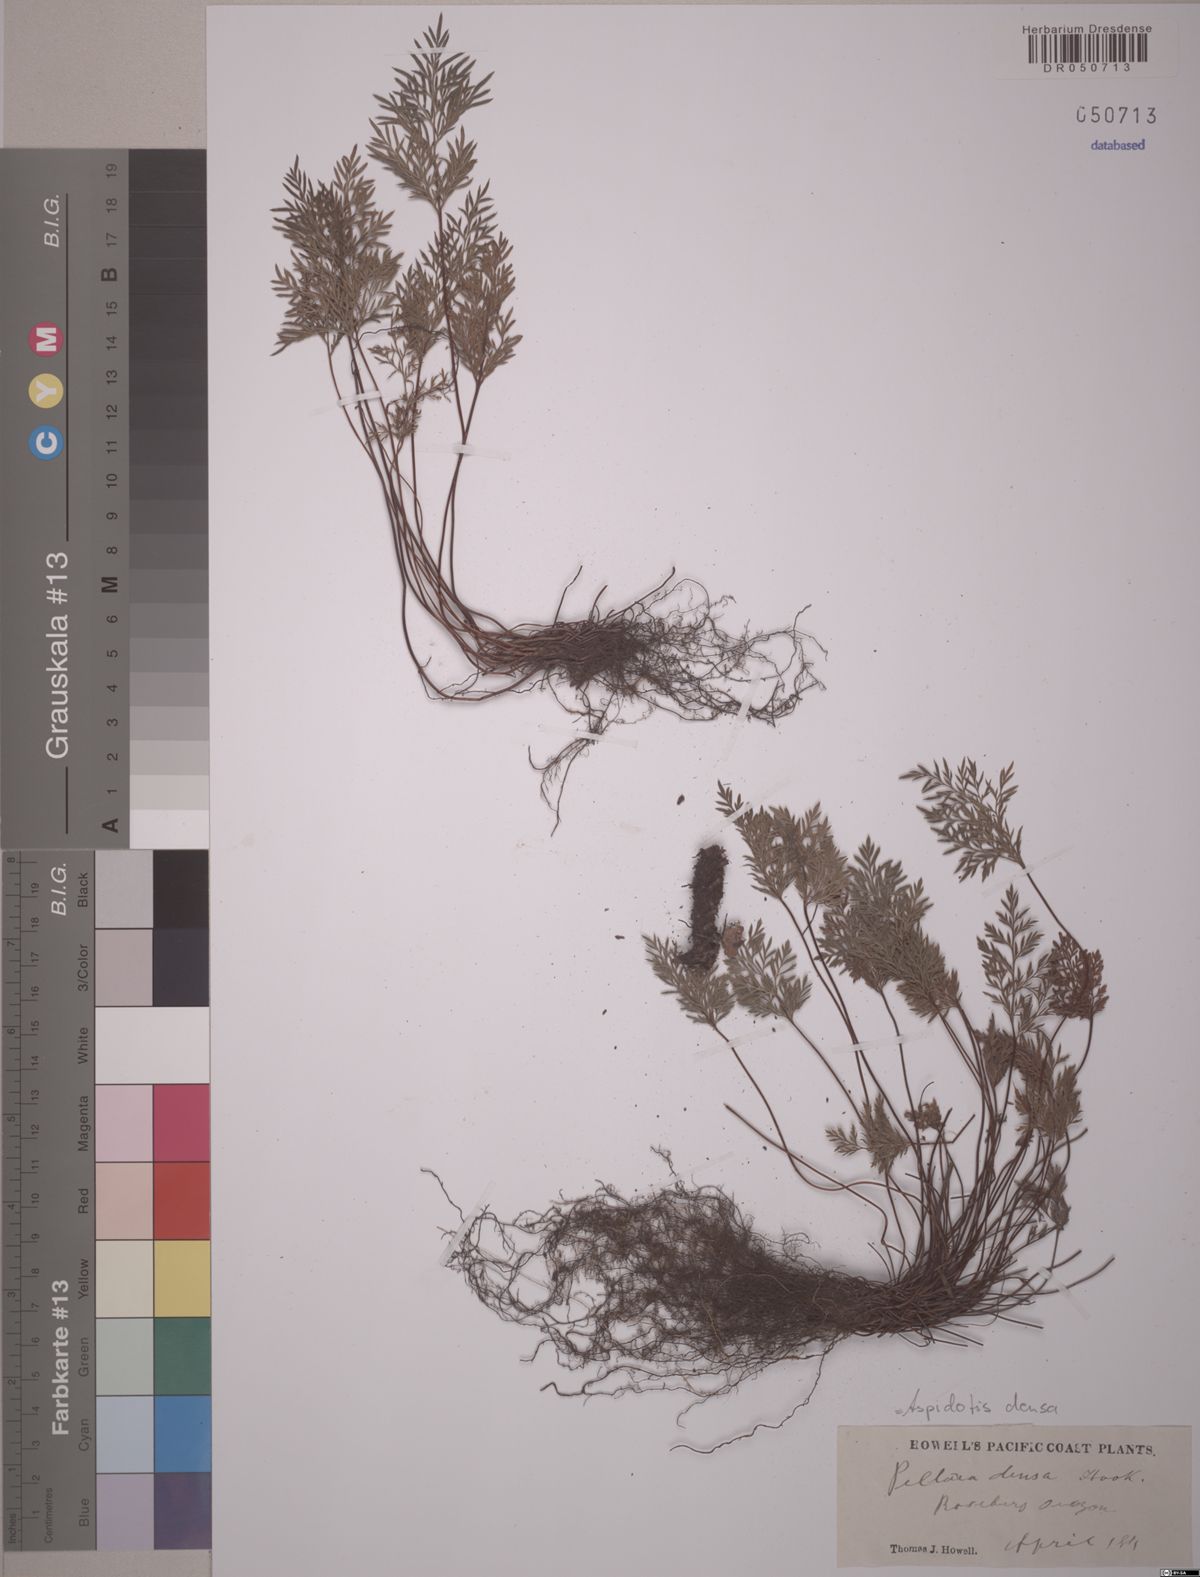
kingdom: Plantae
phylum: Tracheophyta
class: Polypodiopsida
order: Polypodiales
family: Pteridaceae
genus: Aspidotis
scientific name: Aspidotis densa
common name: Indian's dream
